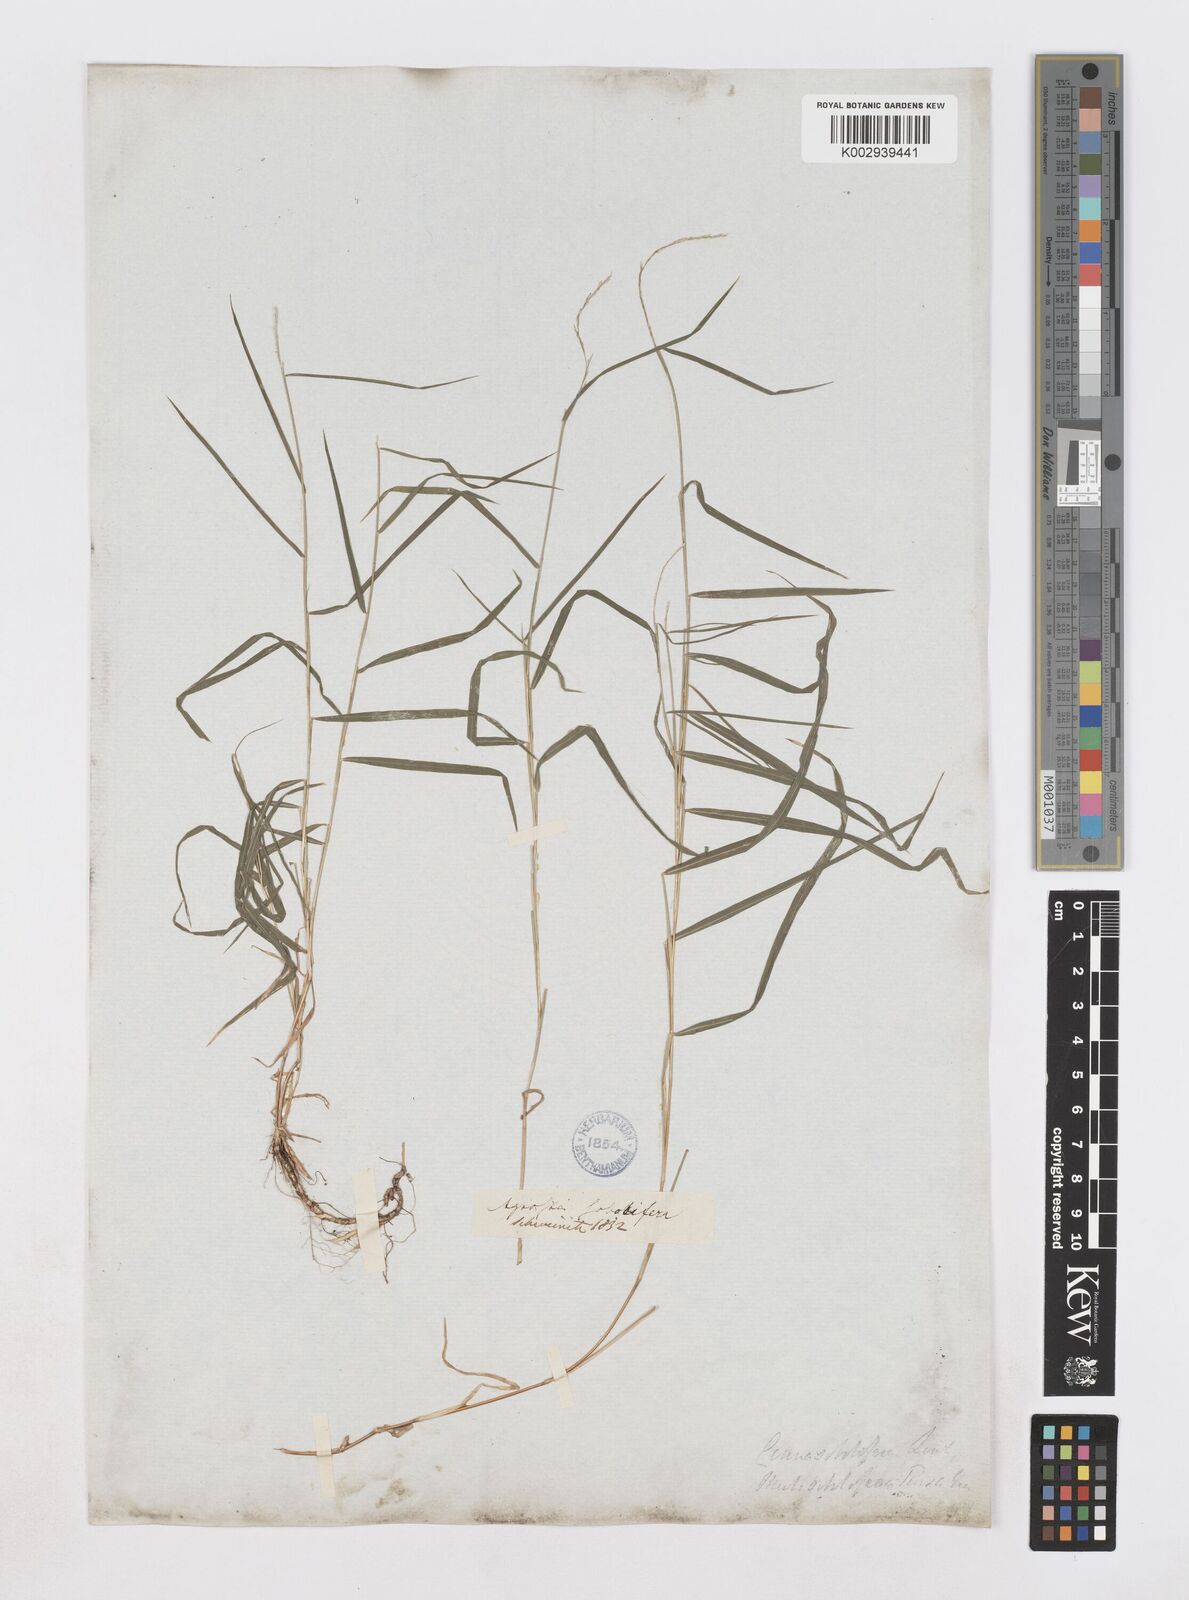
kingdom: Plantae
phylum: Tracheophyta
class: Liliopsida
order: Poales
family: Poaceae
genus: Muhlenbergia
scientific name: Muhlenbergia sobolifera
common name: Creeping muhly
